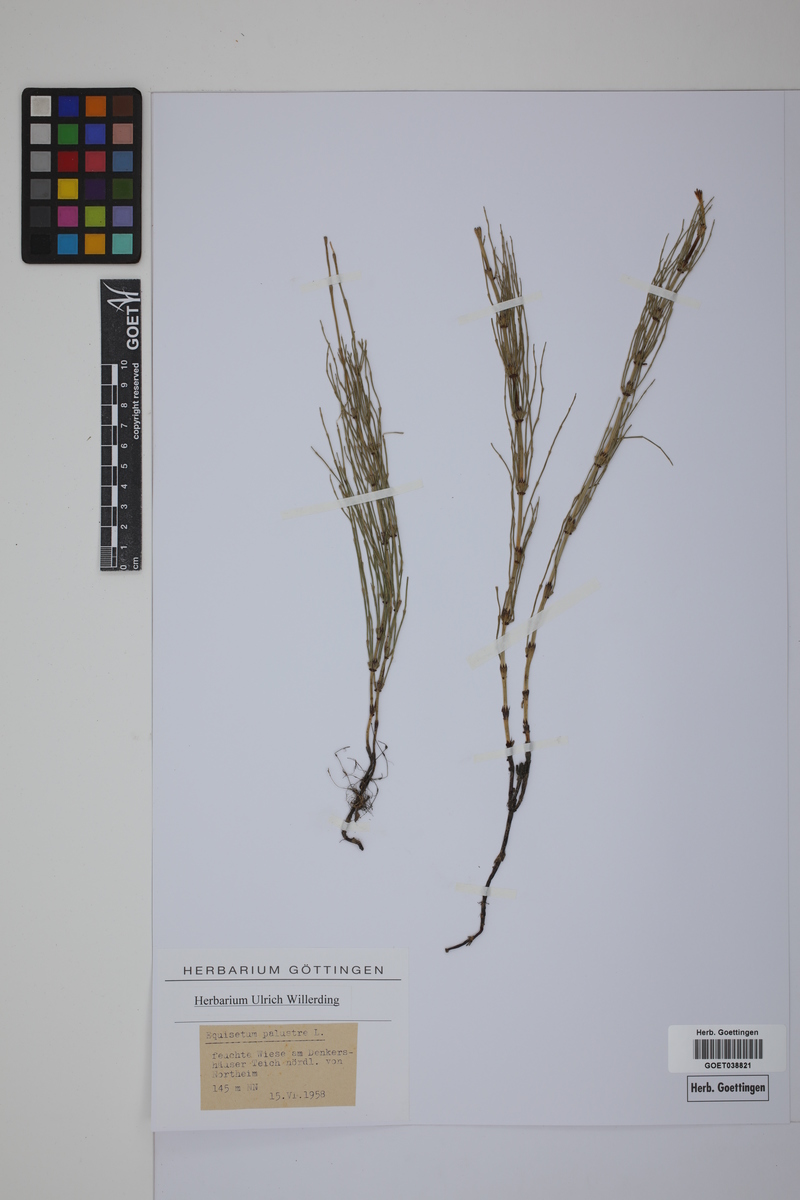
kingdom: Plantae
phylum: Tracheophyta
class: Polypodiopsida
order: Equisetales
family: Equisetaceae
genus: Equisetum
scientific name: Equisetum palustre
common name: Marsh horsetail
